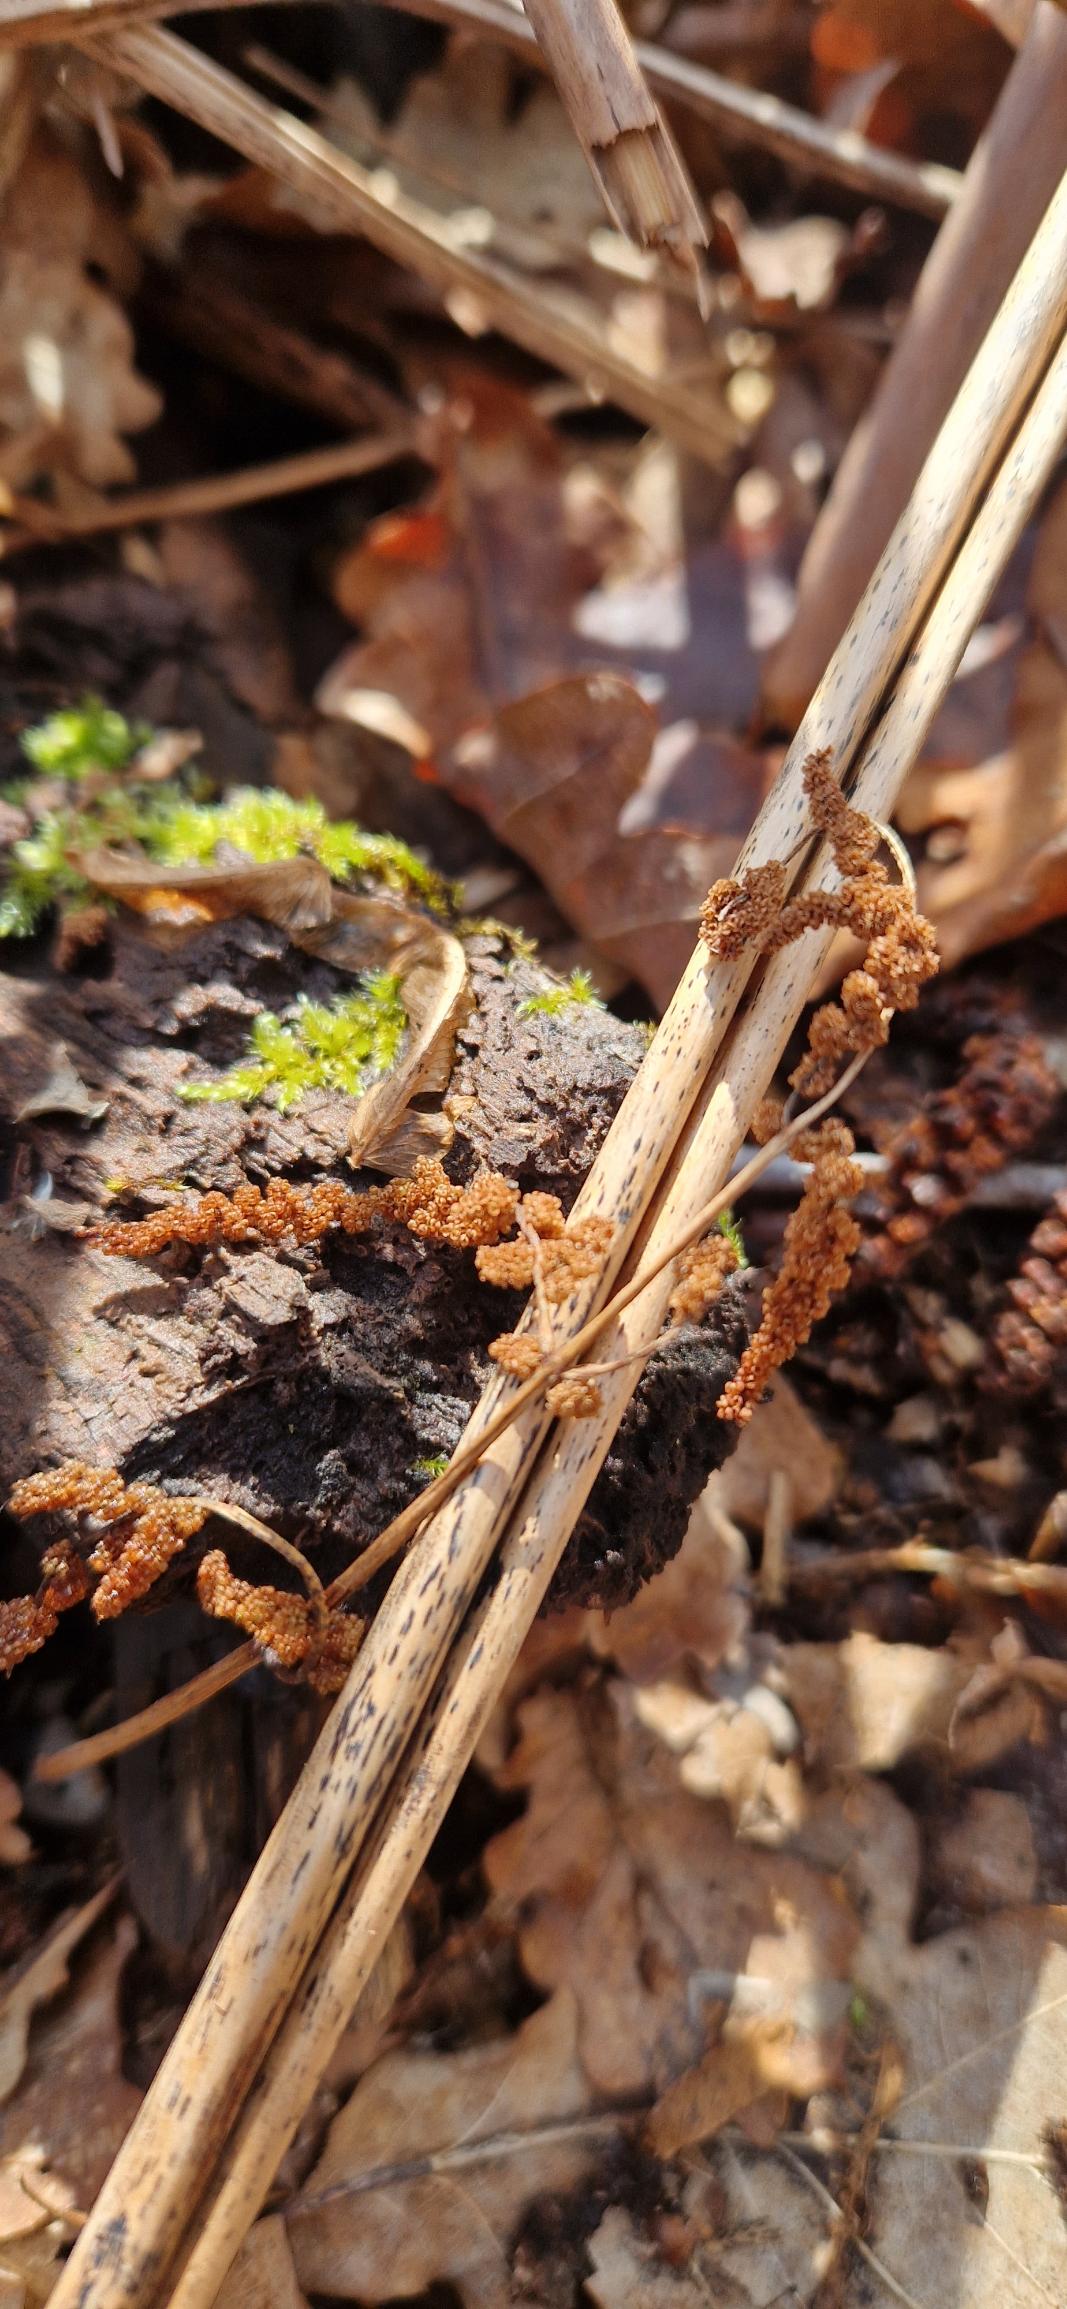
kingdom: Plantae
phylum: Tracheophyta
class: Polypodiopsida
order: Osmundales
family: Osmundaceae
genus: Osmunda
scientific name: Osmunda regalis
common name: Kongebregne
